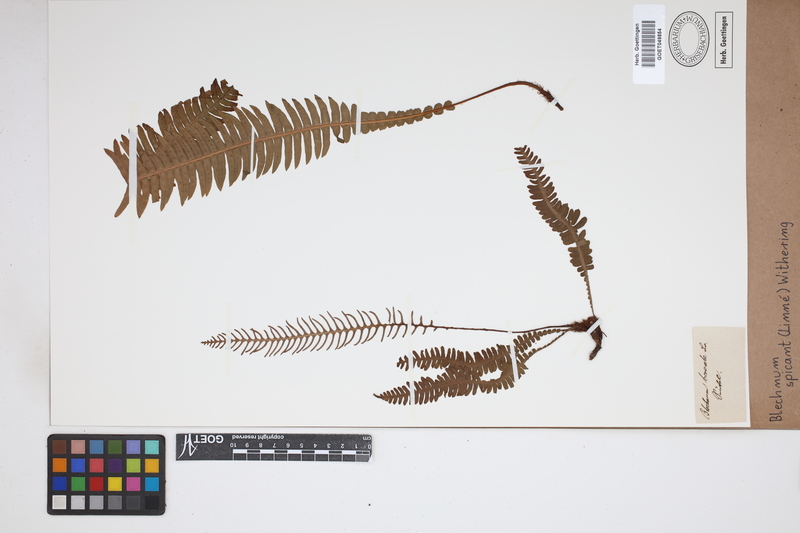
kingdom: Plantae
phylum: Tracheophyta
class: Polypodiopsida
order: Polypodiales
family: Blechnaceae
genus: Struthiopteris
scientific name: Struthiopteris spicant
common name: Deer fern
